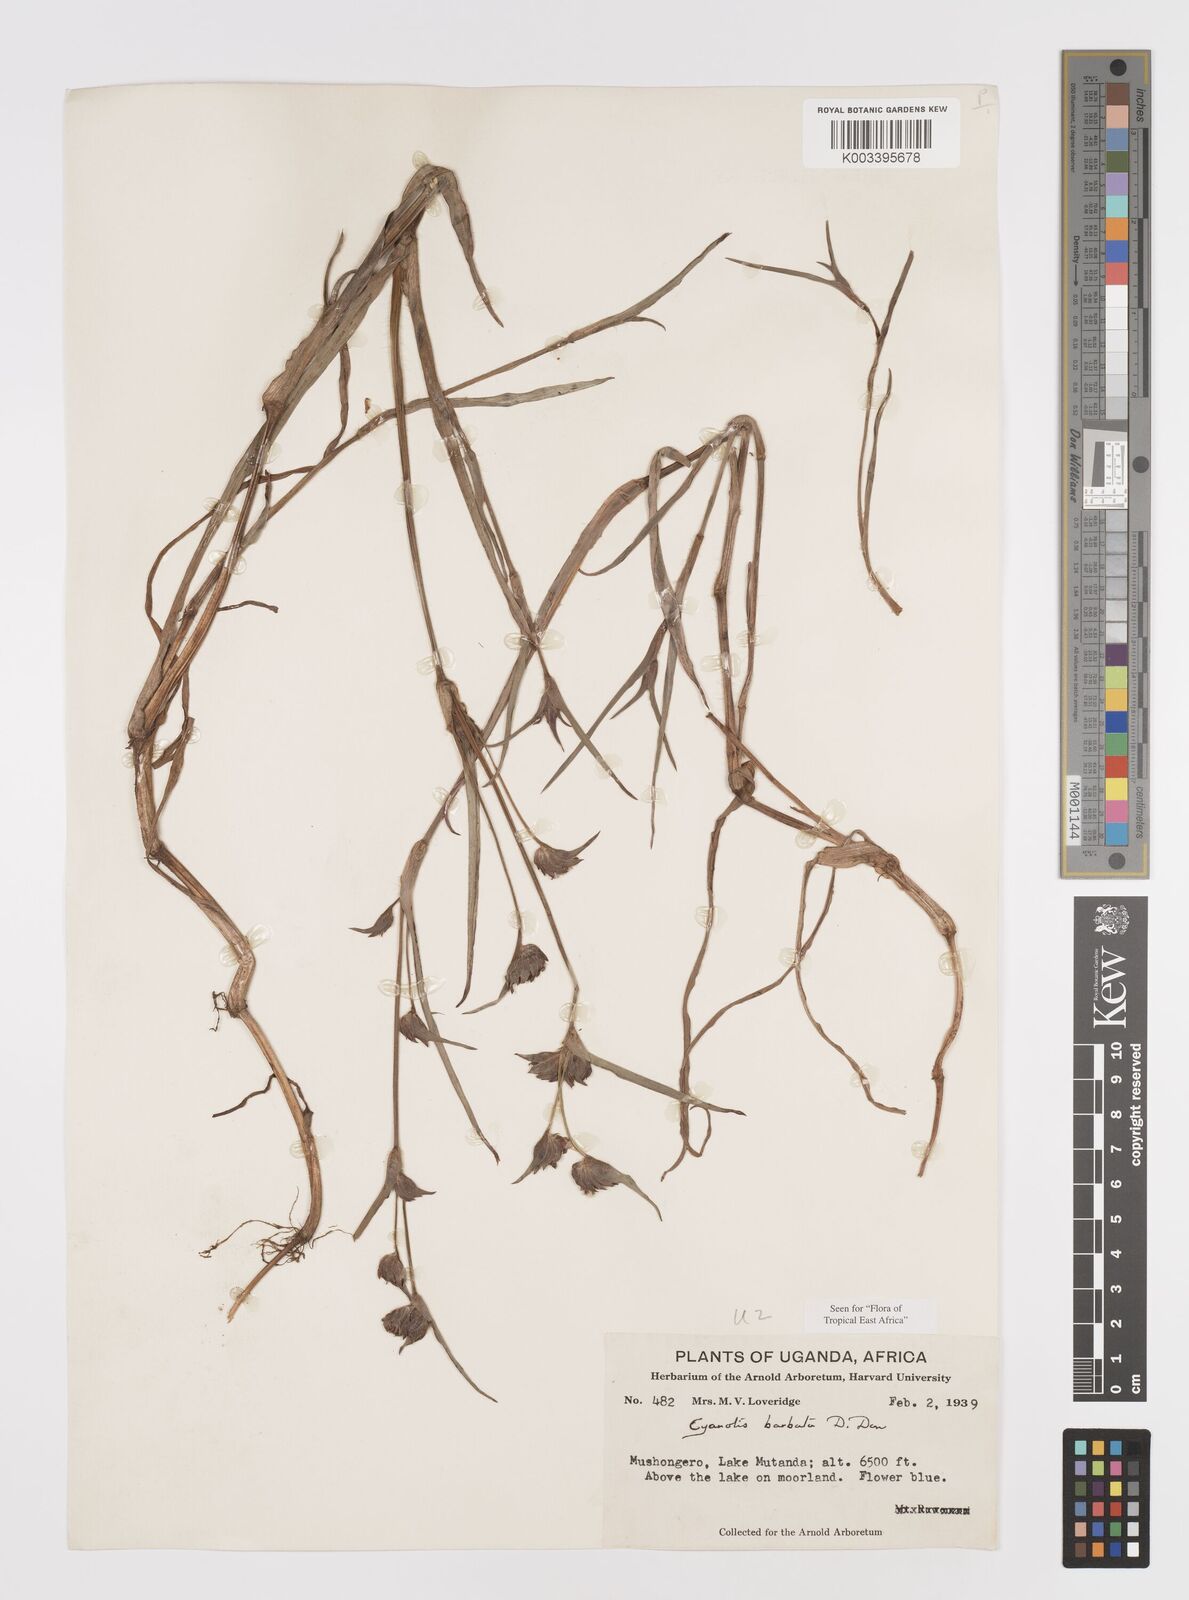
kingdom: Plantae
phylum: Tracheophyta
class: Liliopsida
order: Commelinales
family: Commelinaceae
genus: Cyanotis
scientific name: Cyanotis vaga
